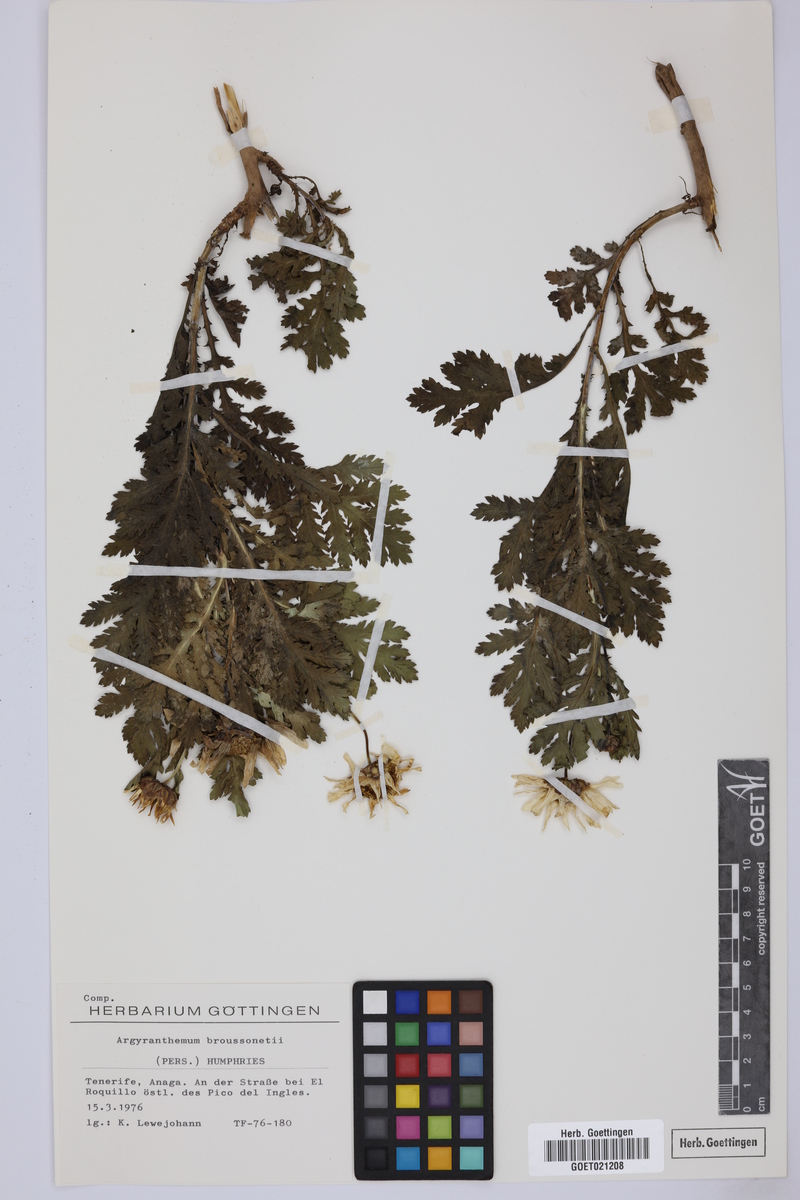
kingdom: Plantae
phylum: Tracheophyta
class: Magnoliopsida
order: Asterales
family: Asteraceae
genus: Argyranthemum
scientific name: Argyranthemum broussonetii
